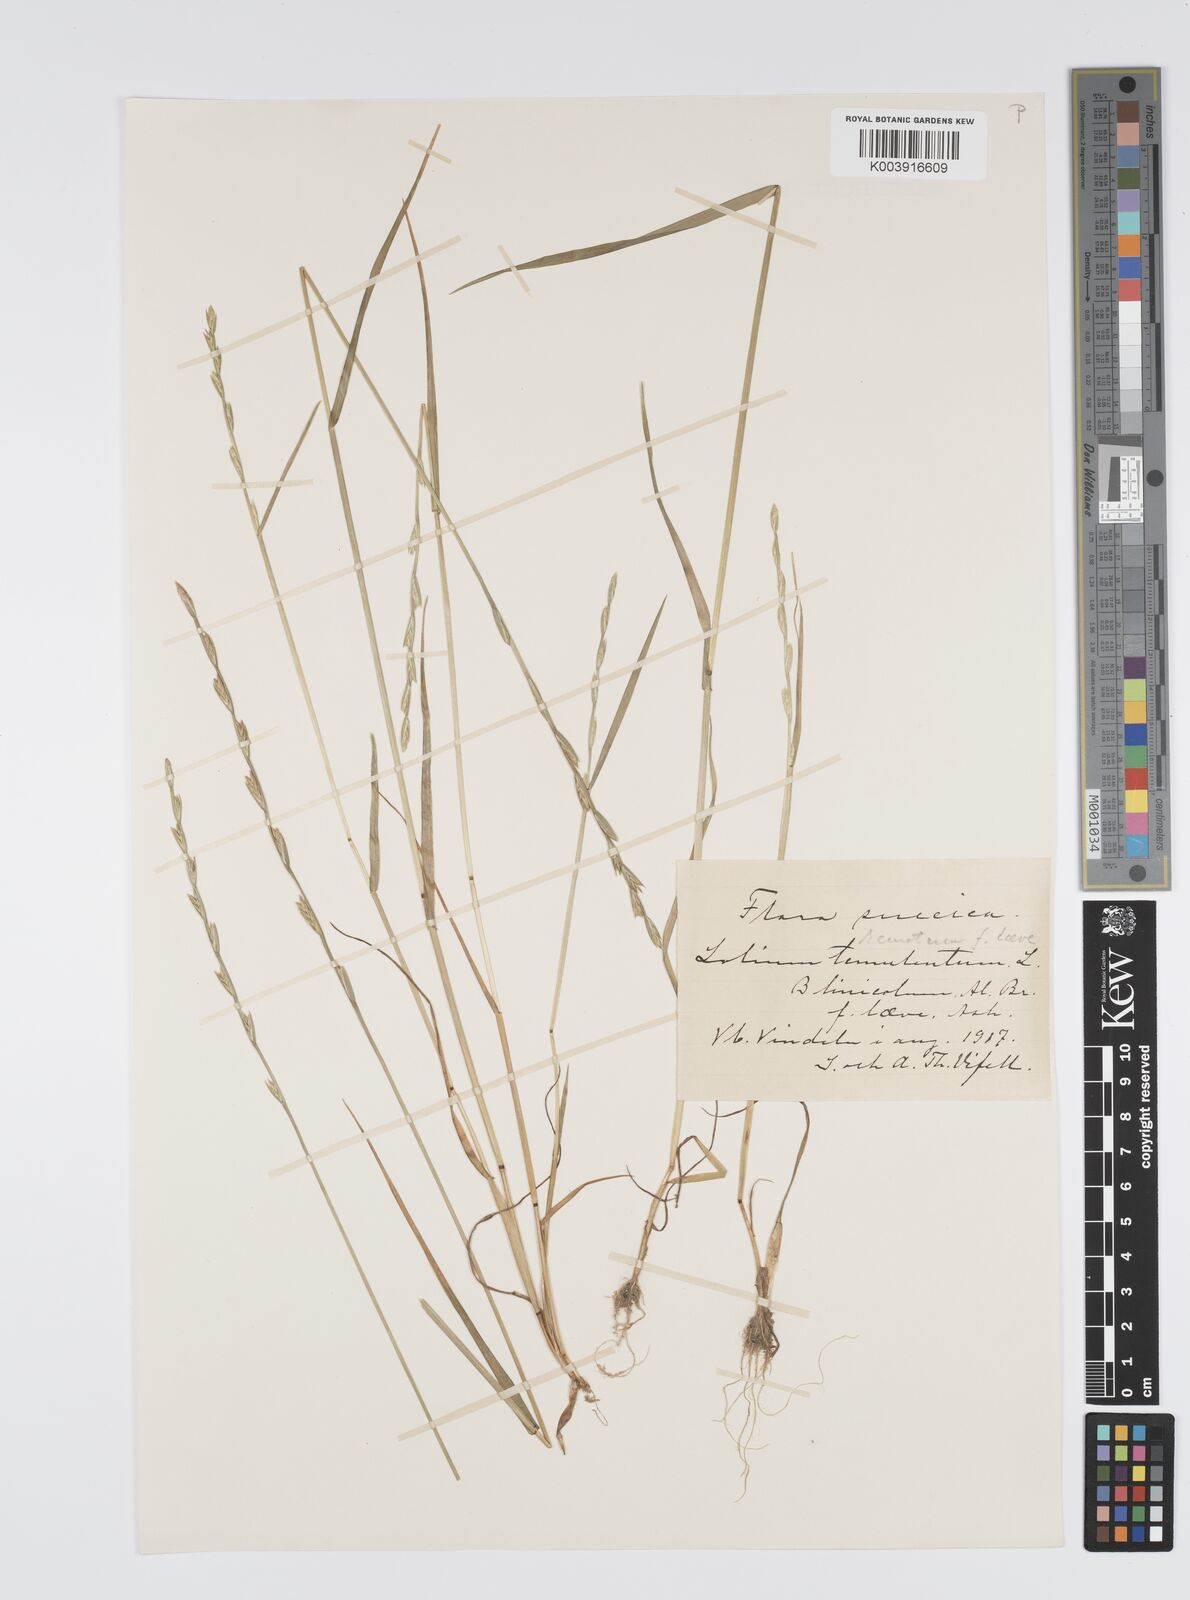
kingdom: Plantae
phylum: Tracheophyta
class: Liliopsida
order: Poales
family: Poaceae
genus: Lolium
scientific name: Lolium remotum
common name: Flaxfield rye-grass
